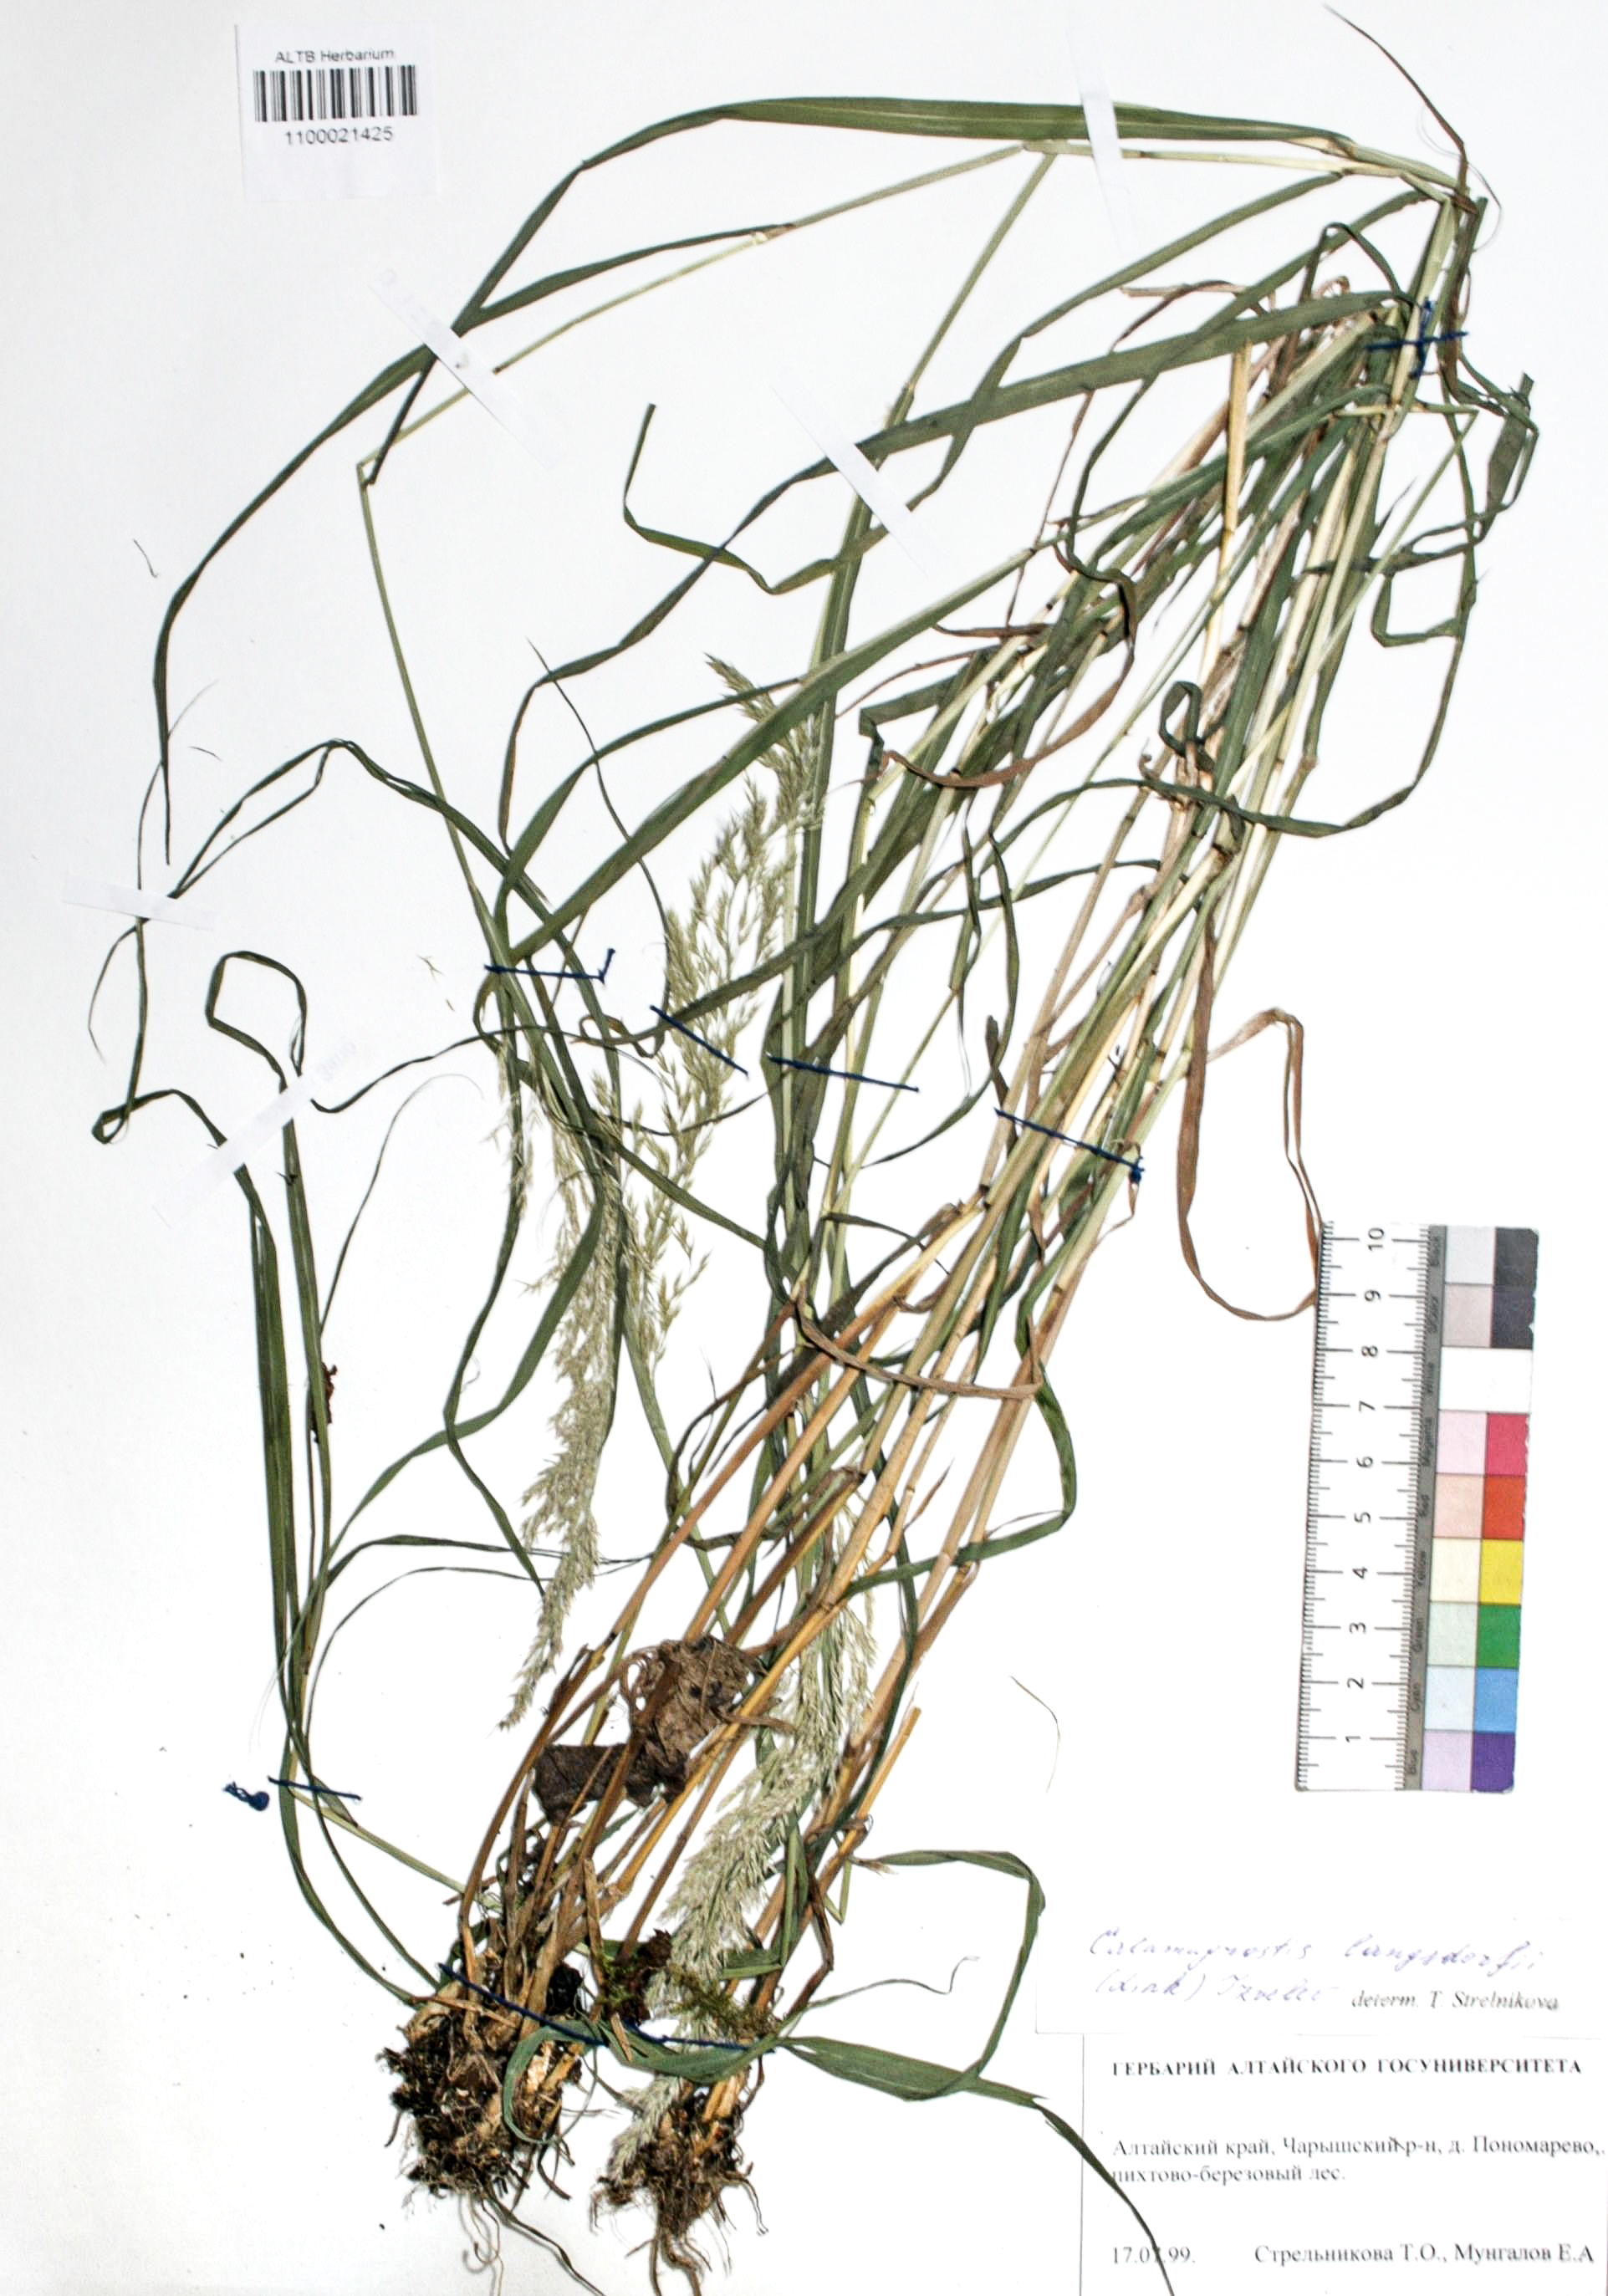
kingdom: Plantae
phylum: Tracheophyta
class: Liliopsida
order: Poales
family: Poaceae
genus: Calamagrostis
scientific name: Calamagrostis purpurea
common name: Scandinavian small-reed
